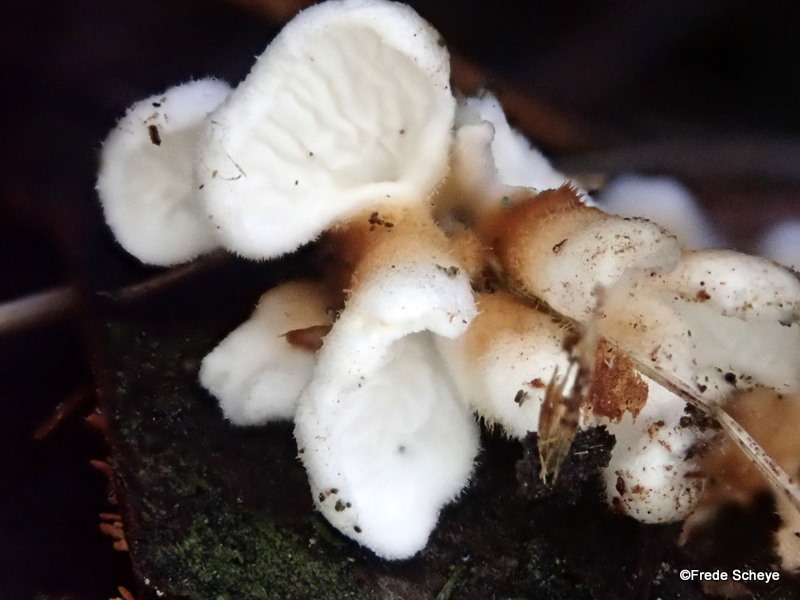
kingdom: Fungi
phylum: Basidiomycota
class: Agaricomycetes
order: Amylocorticiales
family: Amylocorticiaceae
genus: Plicaturopsis
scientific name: Plicaturopsis crispa
